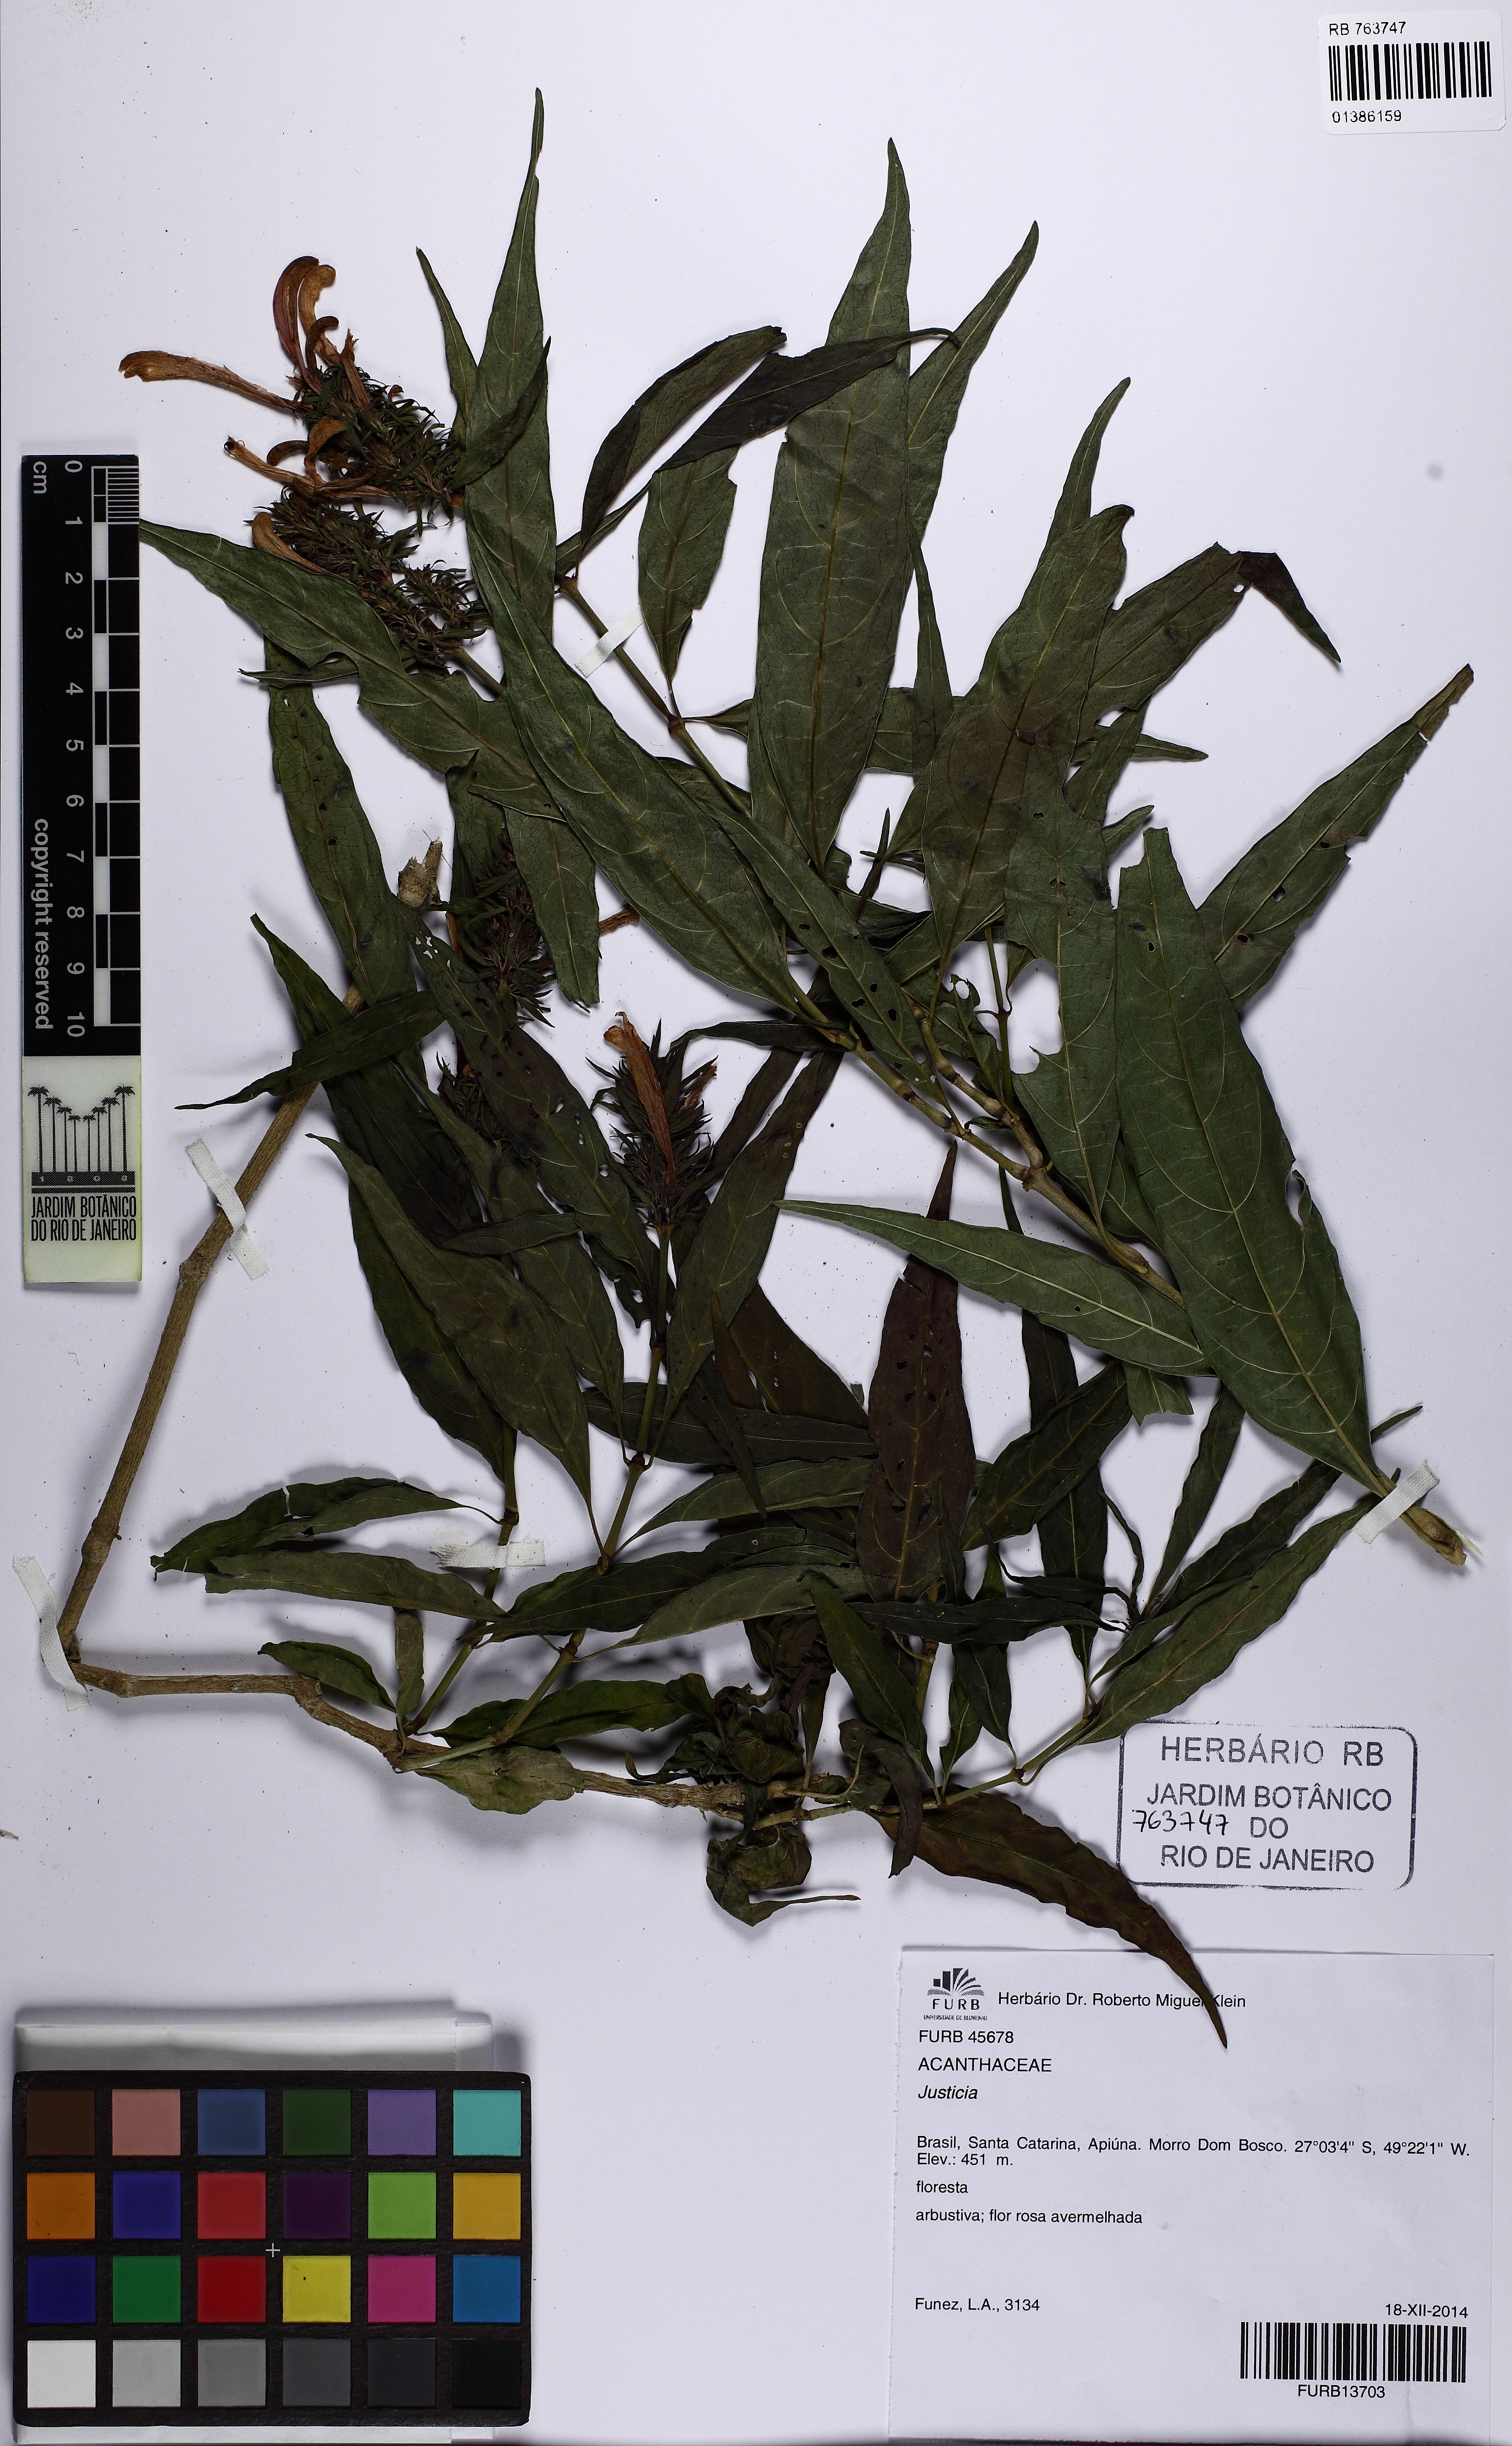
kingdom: Plantae
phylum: Tracheophyta
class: Magnoliopsida
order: Lamiales
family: Acanthaceae
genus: Justicia
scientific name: Justicia
